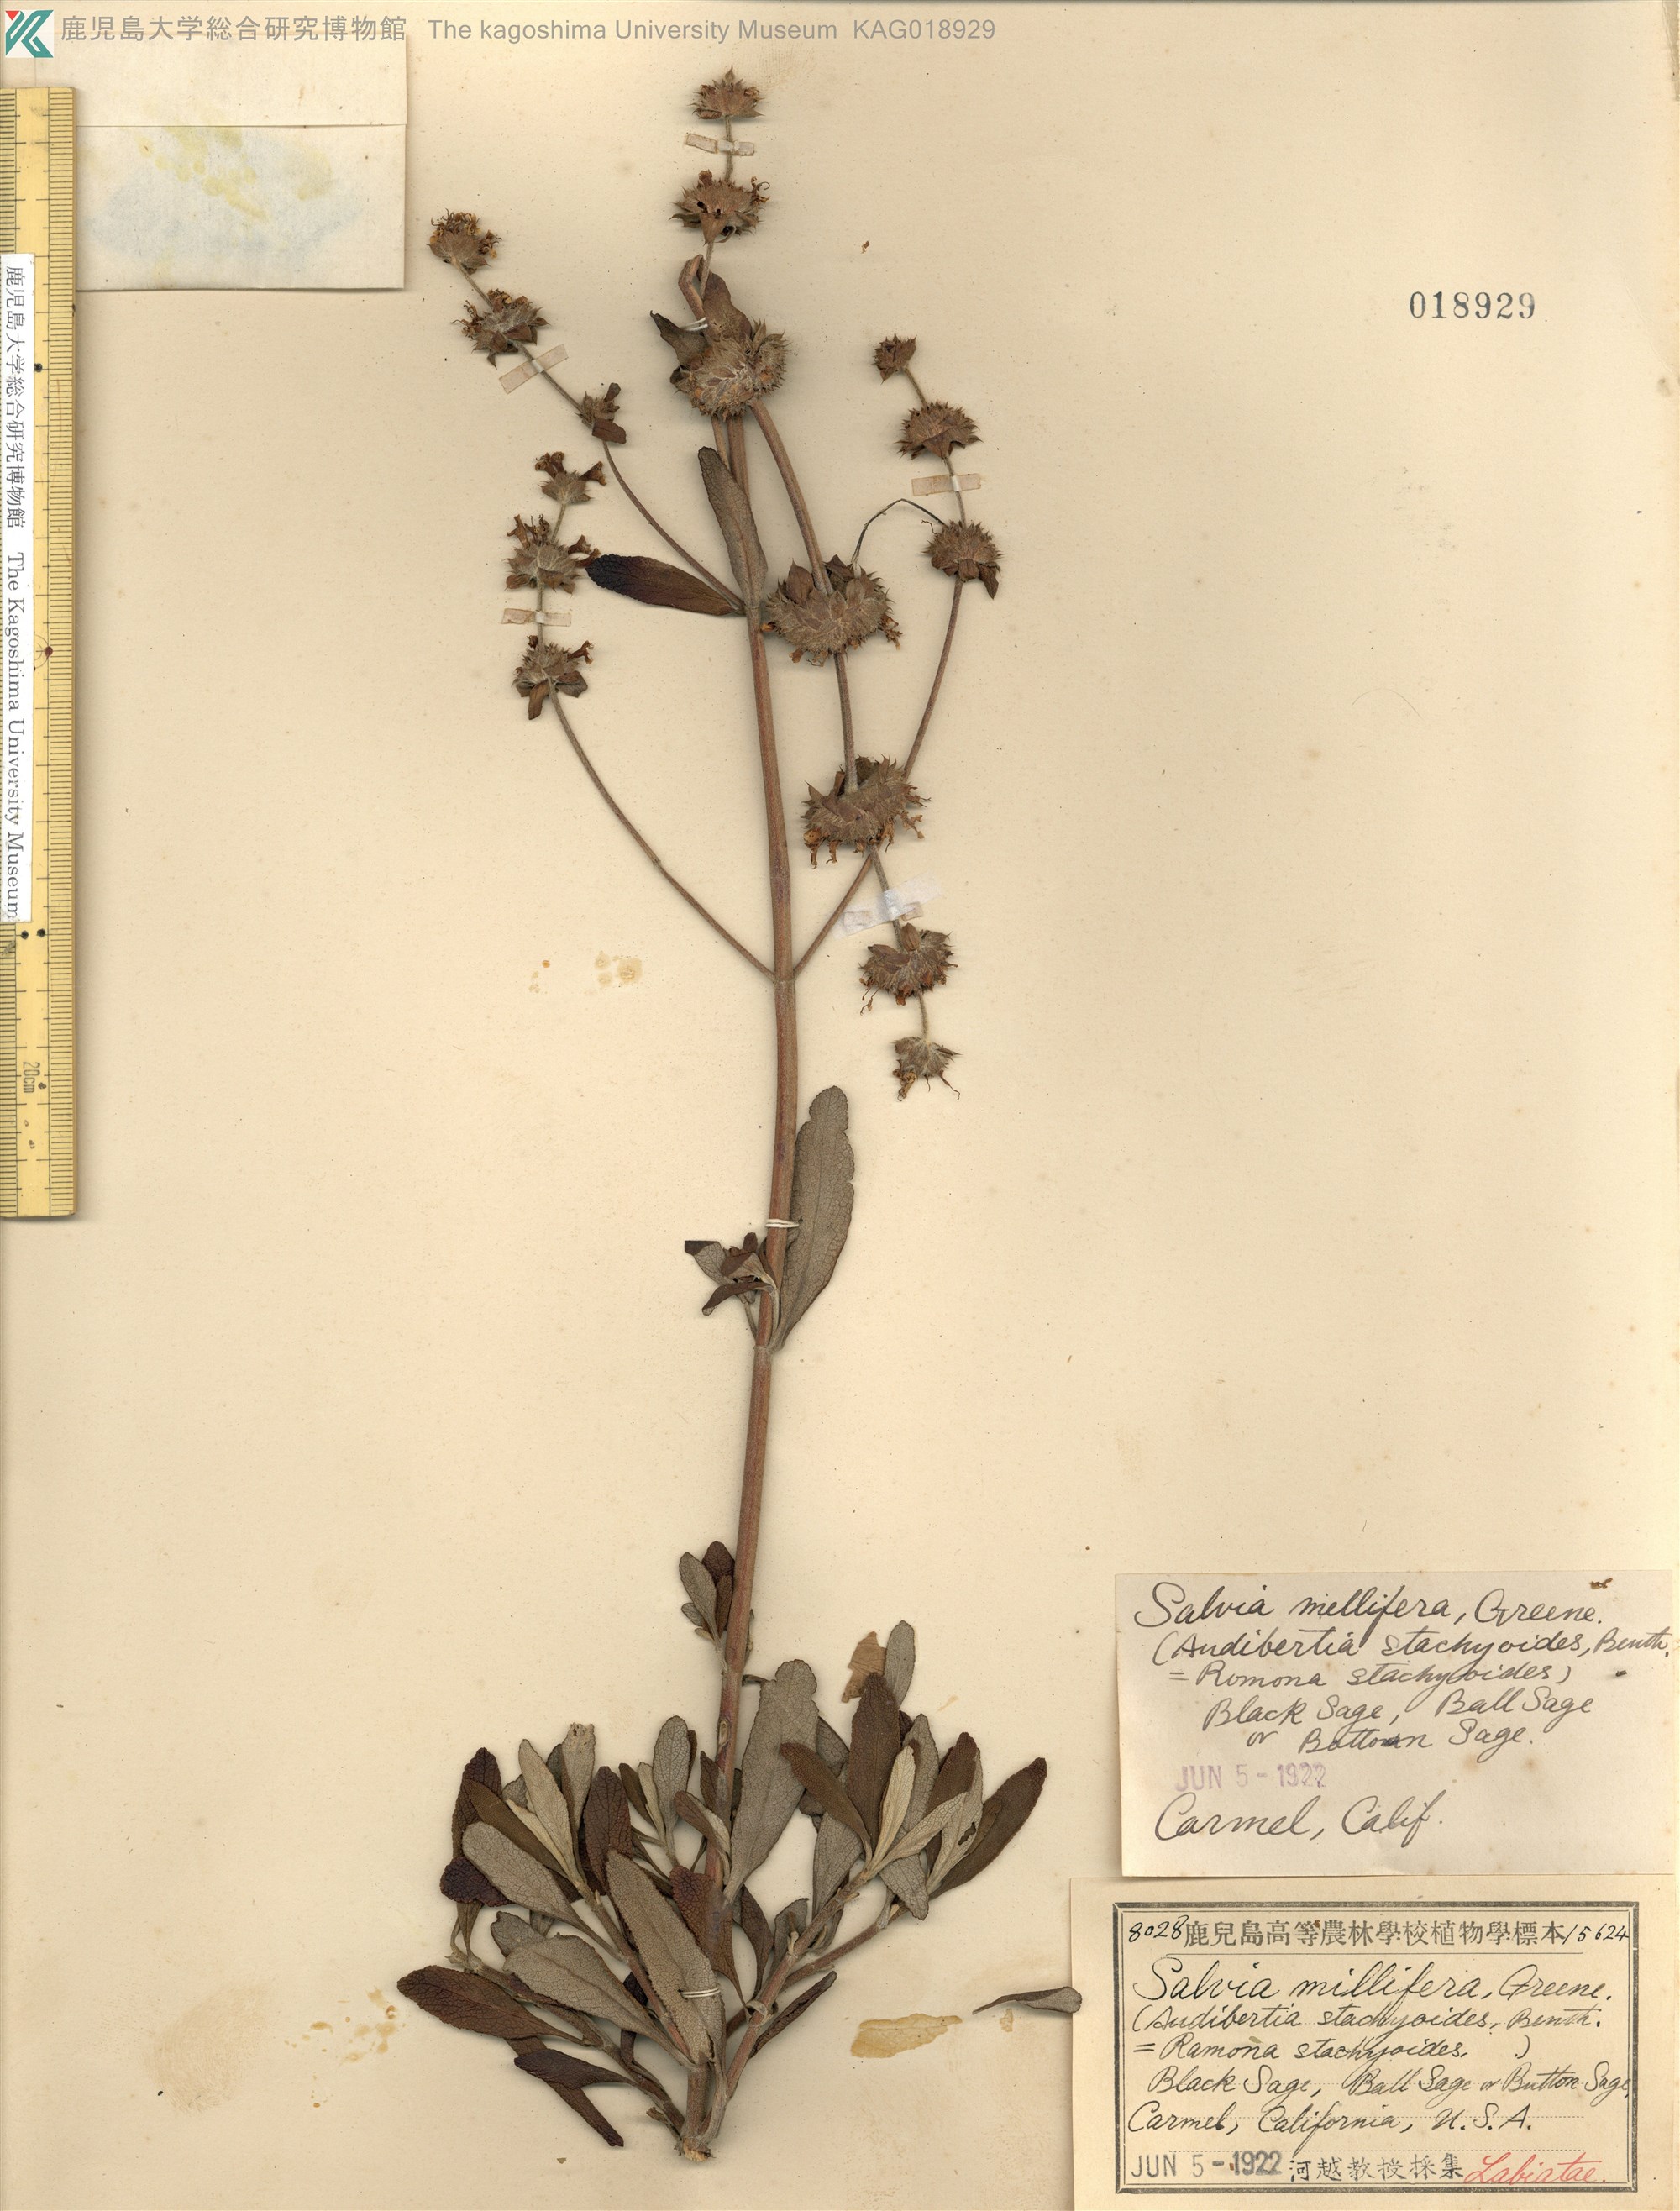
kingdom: Plantae
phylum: Tracheophyta
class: Magnoliopsida
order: Lamiales
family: Lamiaceae
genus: Salvia
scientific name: Salvia mellifera
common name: Black sage
